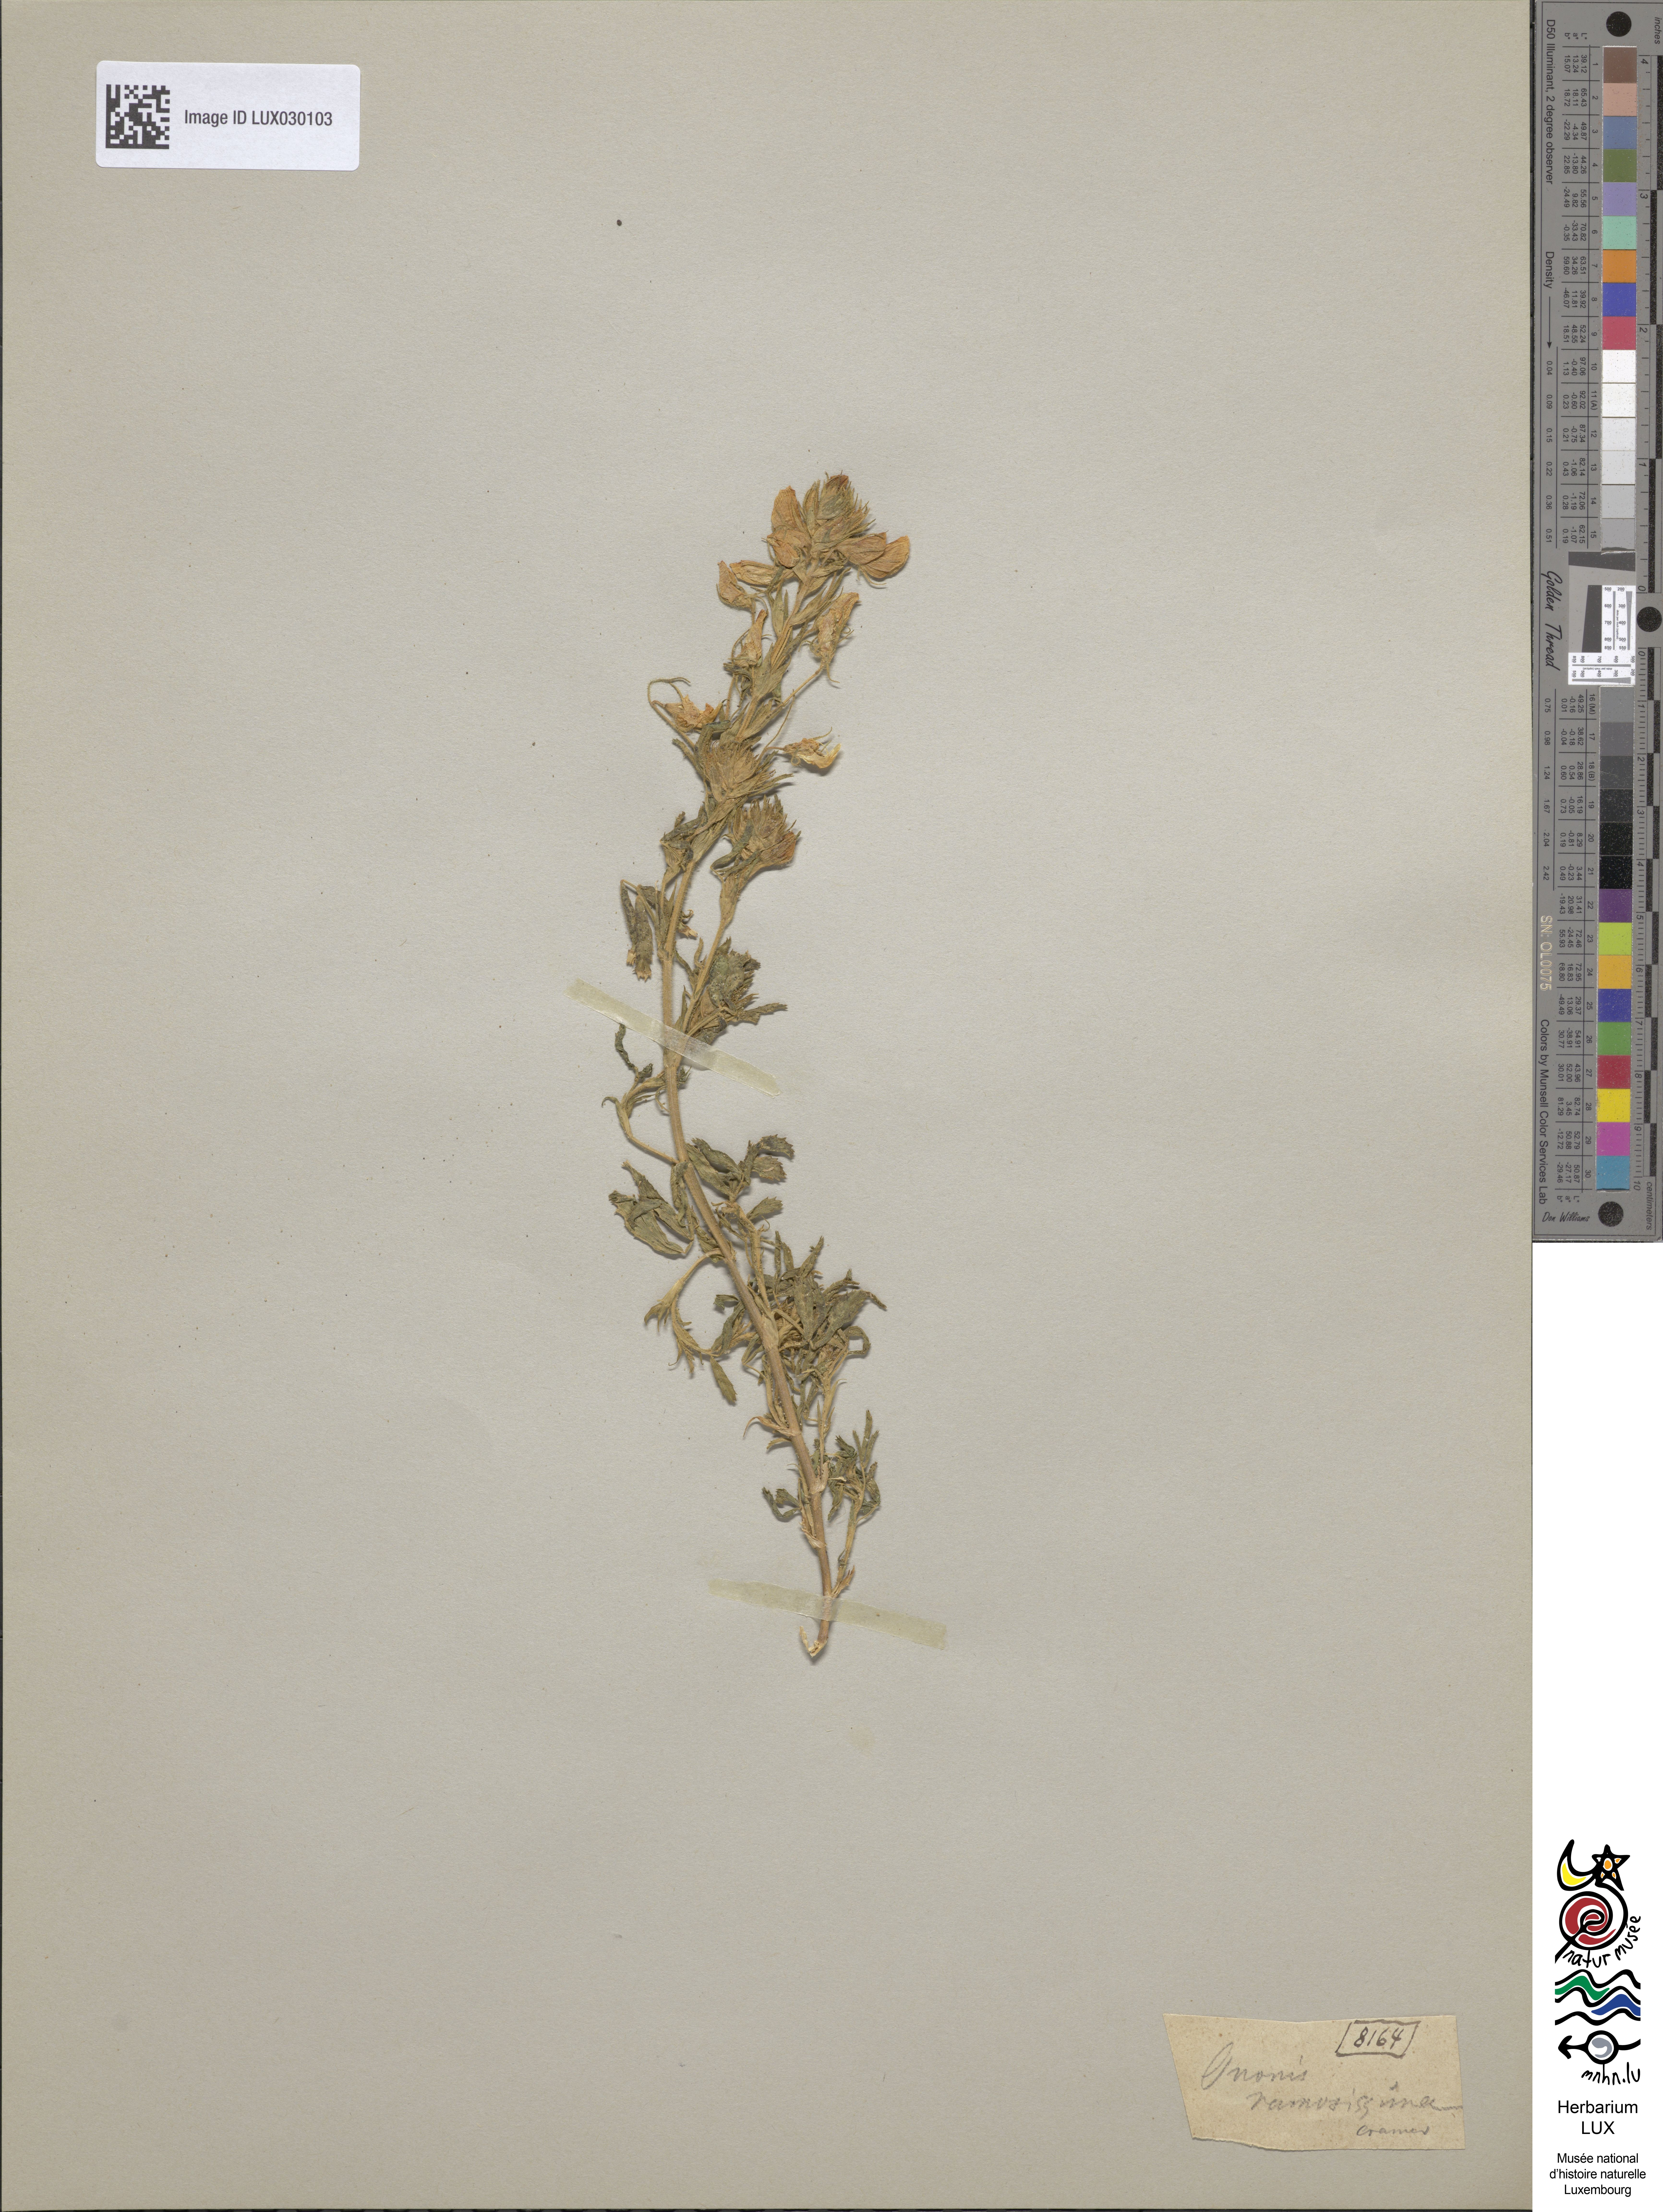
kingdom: Plantae
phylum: Tracheophyta
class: Magnoliopsida
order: Fabales
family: Fabaceae
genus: Ononis
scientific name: Ononis ramosissima
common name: Bush restharrow
